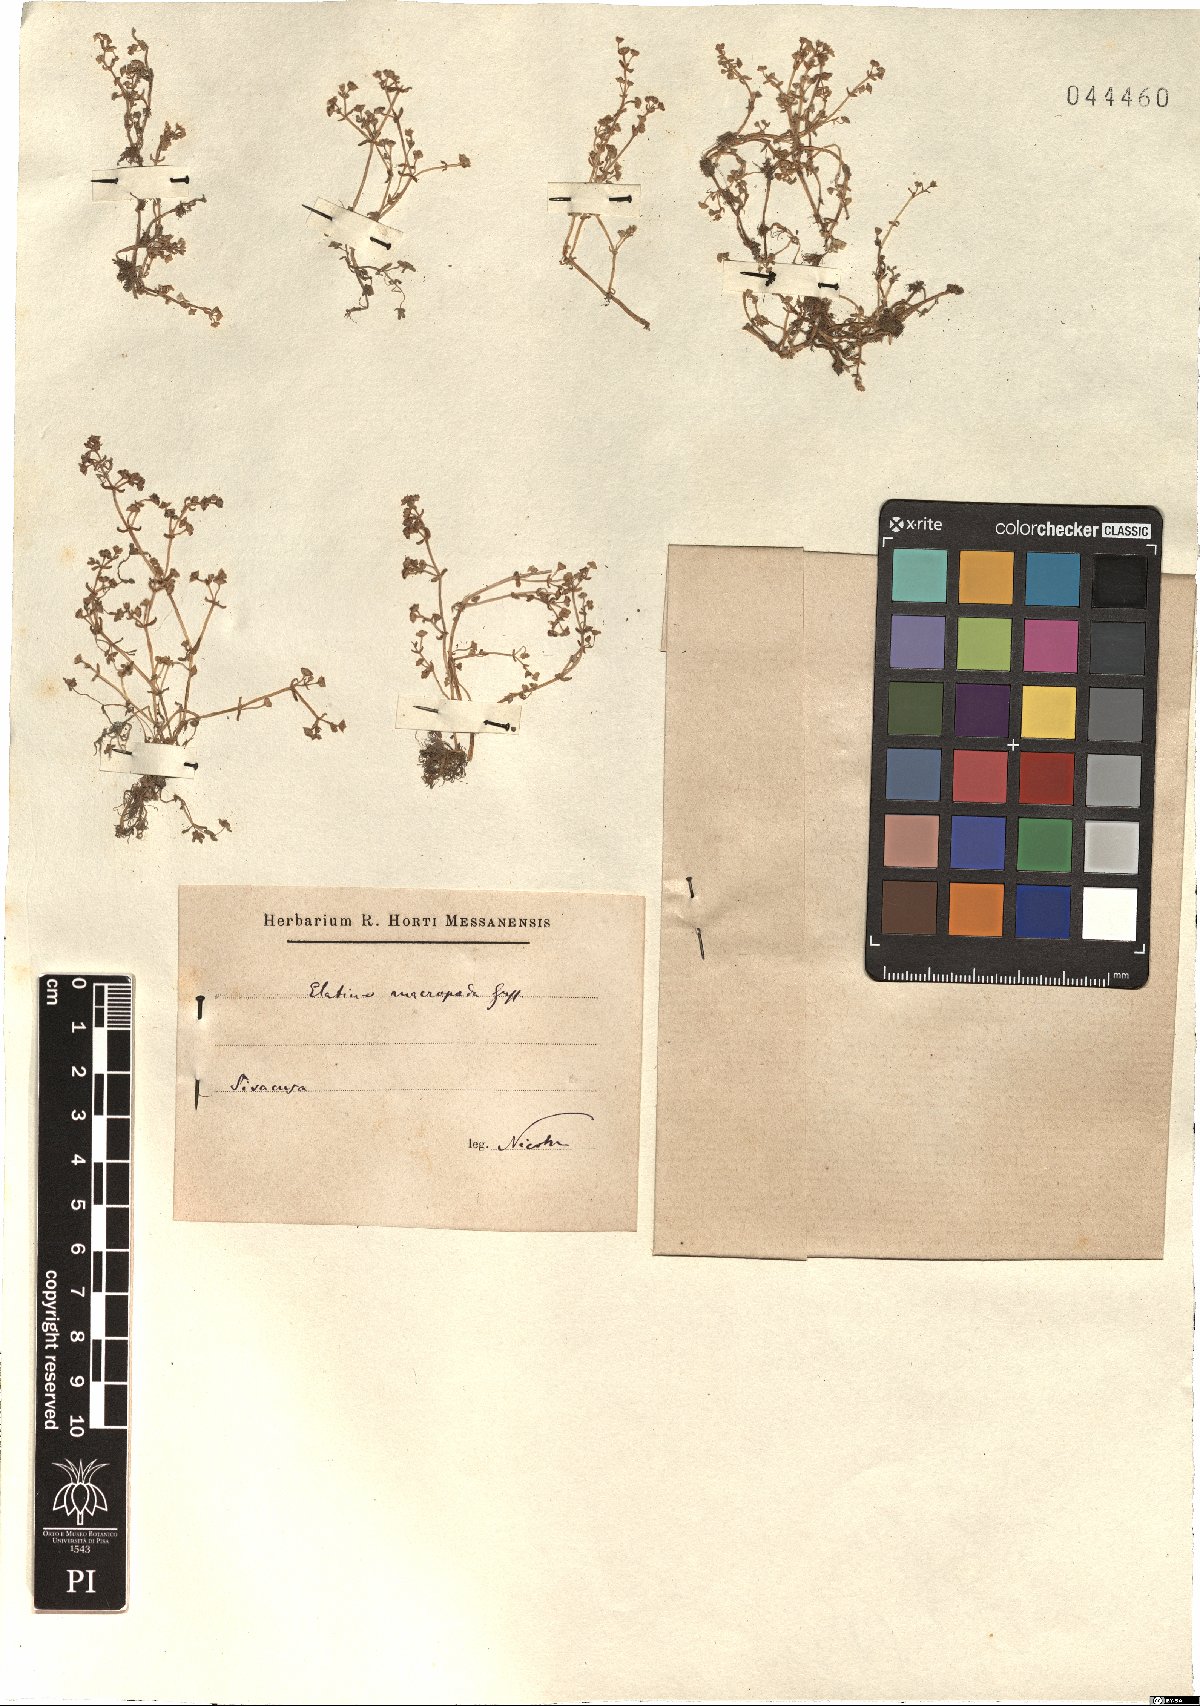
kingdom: Plantae
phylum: Tracheophyta
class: Magnoliopsida
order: Malpighiales
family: Elatinaceae
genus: Elatine
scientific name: Elatine macropoda
